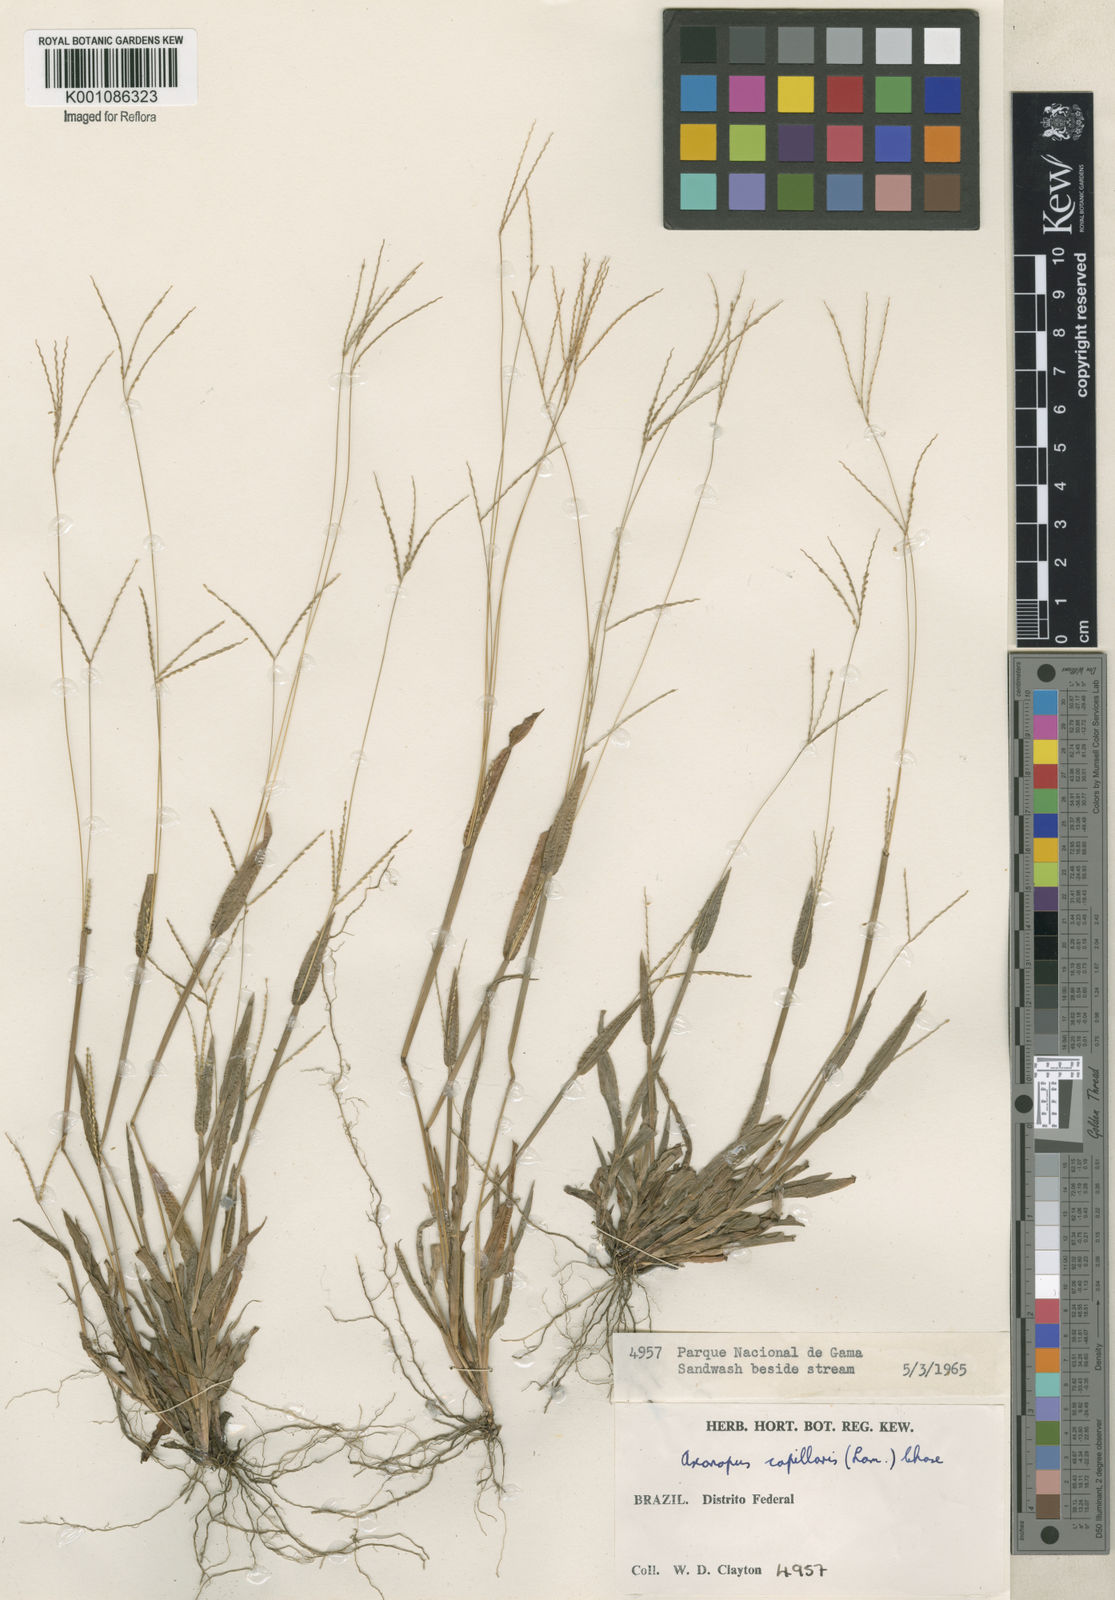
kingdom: Plantae
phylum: Tracheophyta
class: Liliopsida
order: Poales
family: Poaceae
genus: Axonopus
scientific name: Axonopus capillaris
